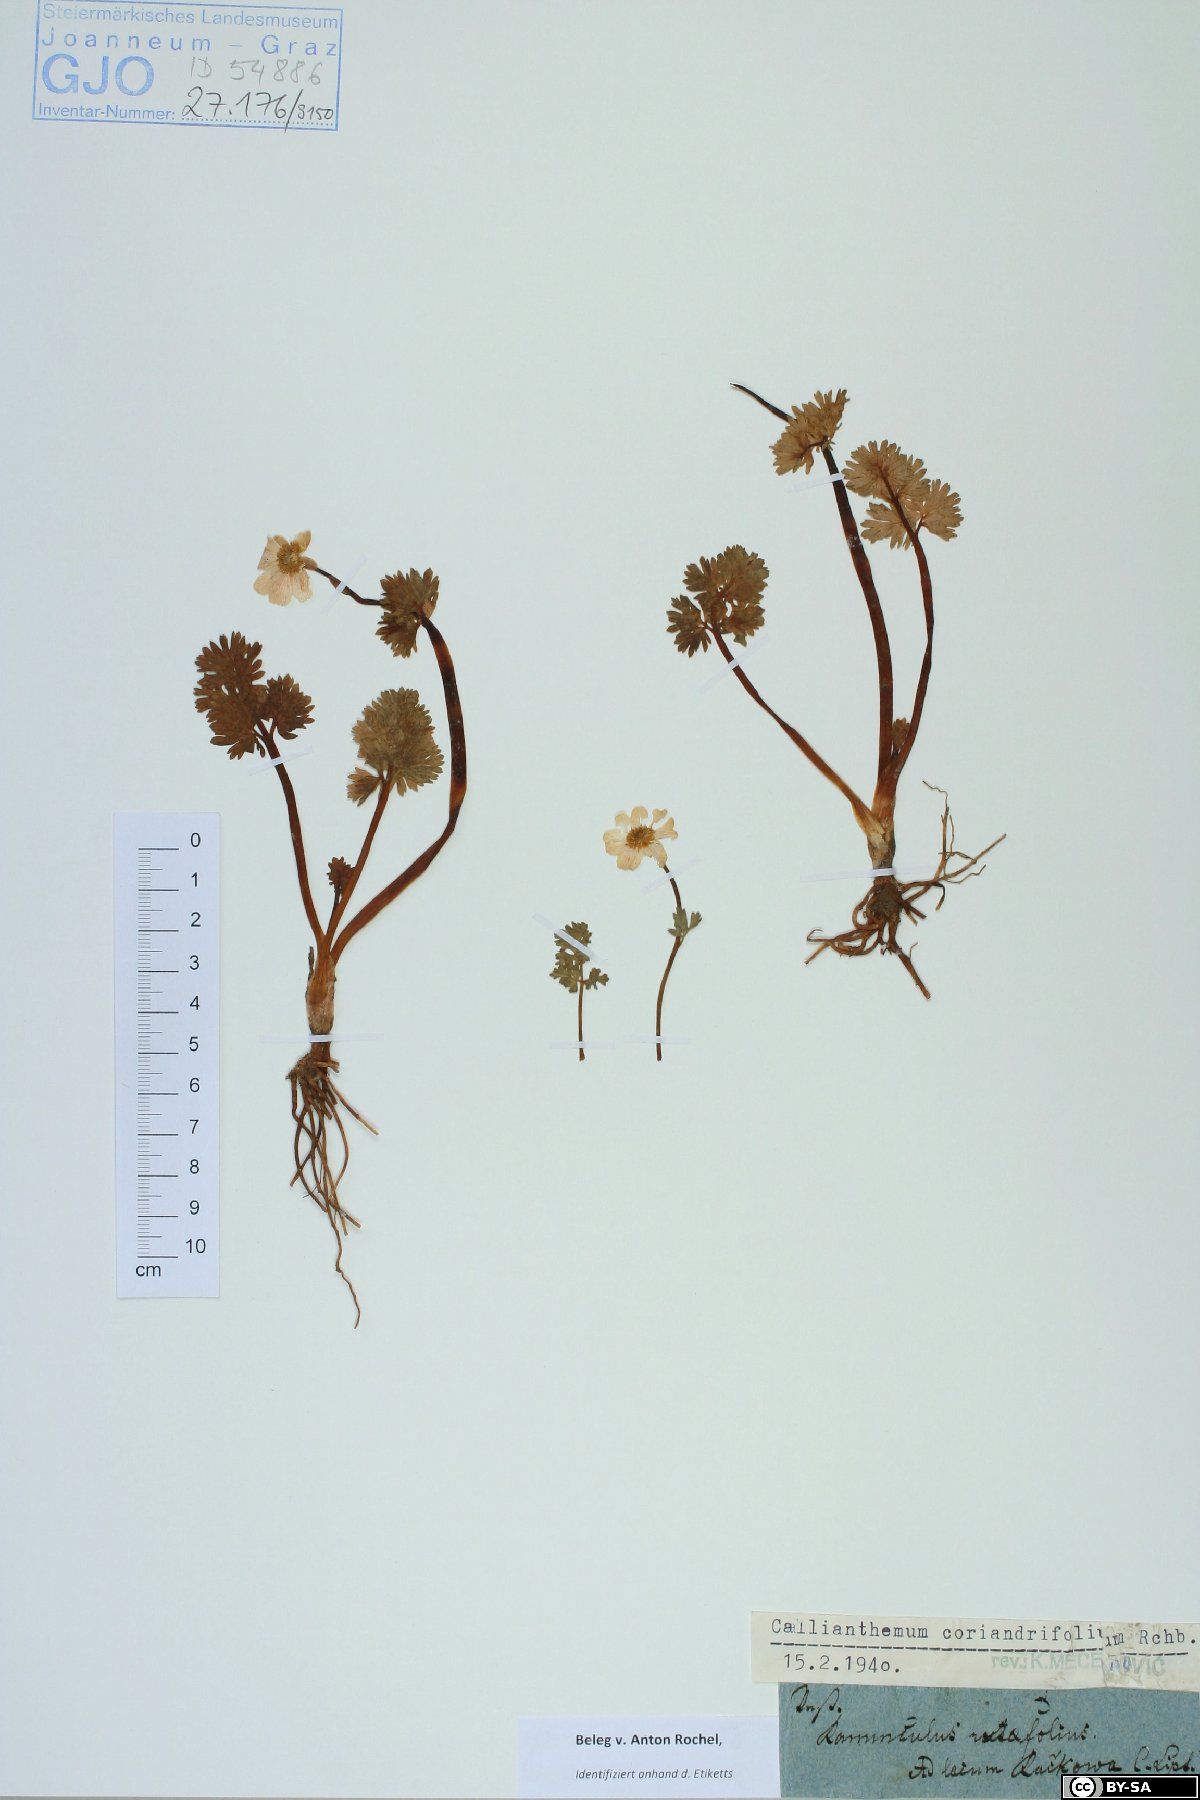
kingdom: Plantae
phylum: Tracheophyta
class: Magnoliopsida
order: Ranunculales
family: Ranunculaceae
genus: Callianthemum
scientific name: Callianthemum coriandrifolium
